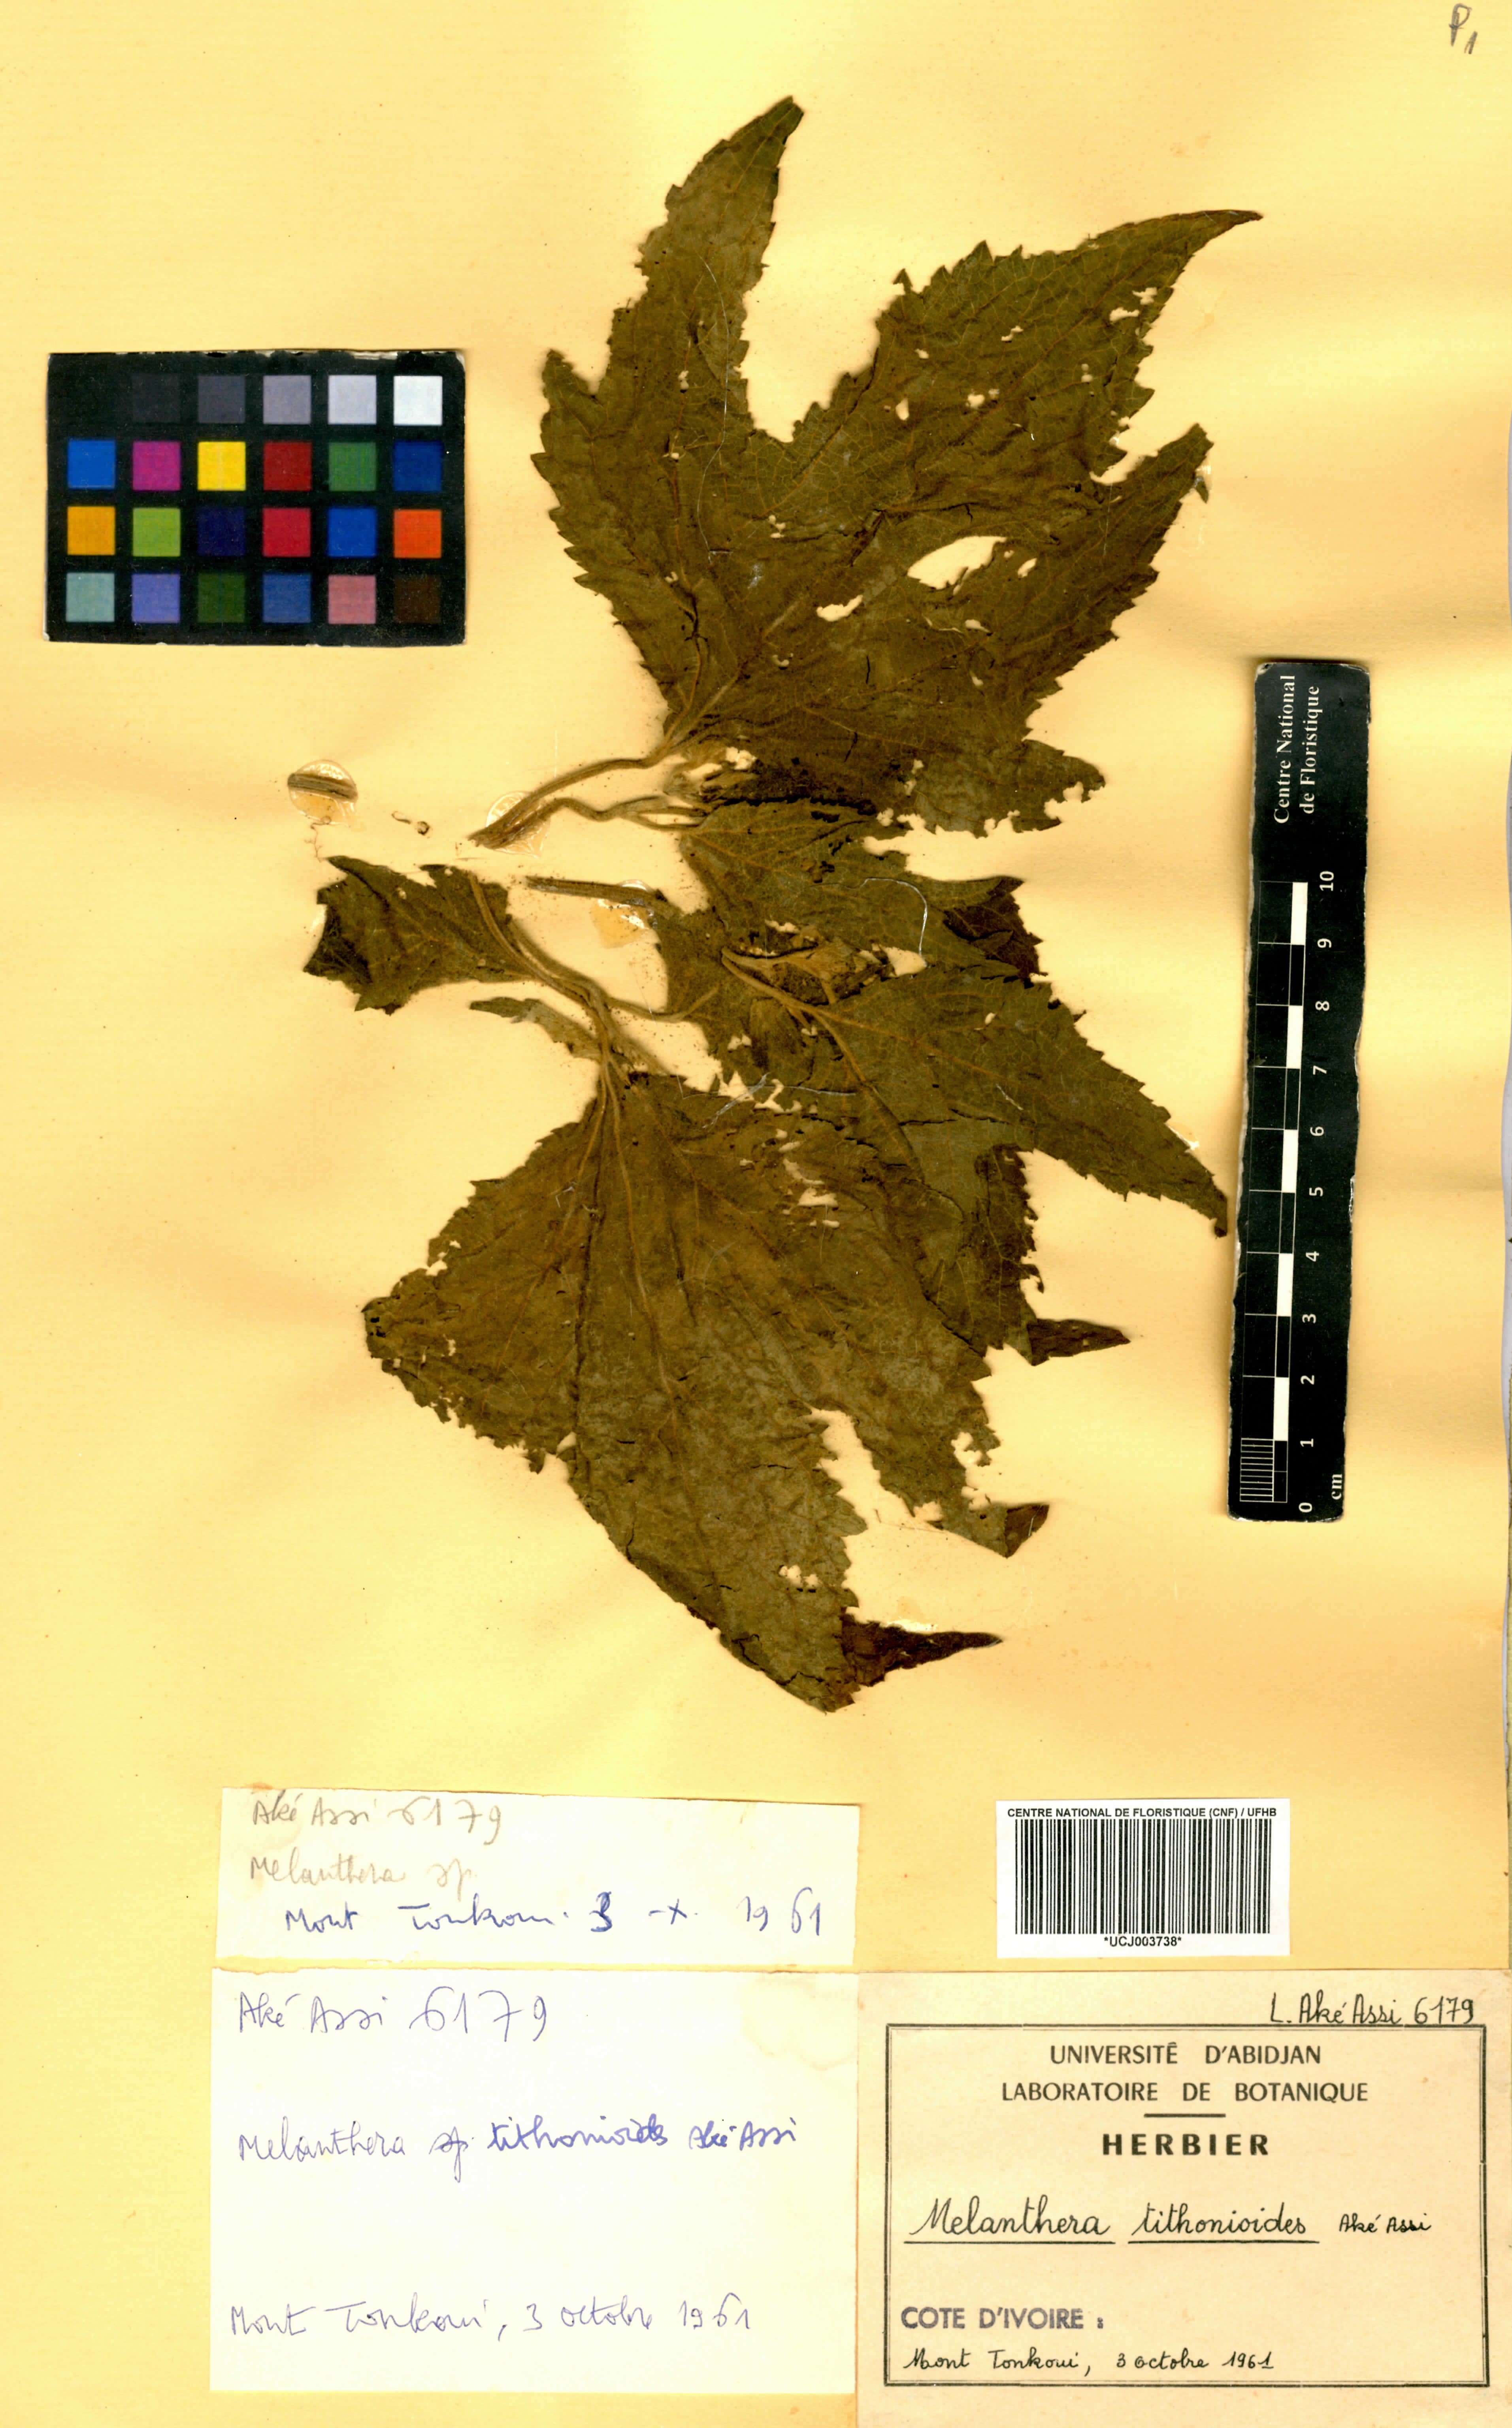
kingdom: Plantae
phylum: Tracheophyta
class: Magnoliopsida
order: Asterales
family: Asteraceae
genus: Lipotriche
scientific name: Lipotriche tithonioides
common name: Simandou daisy
